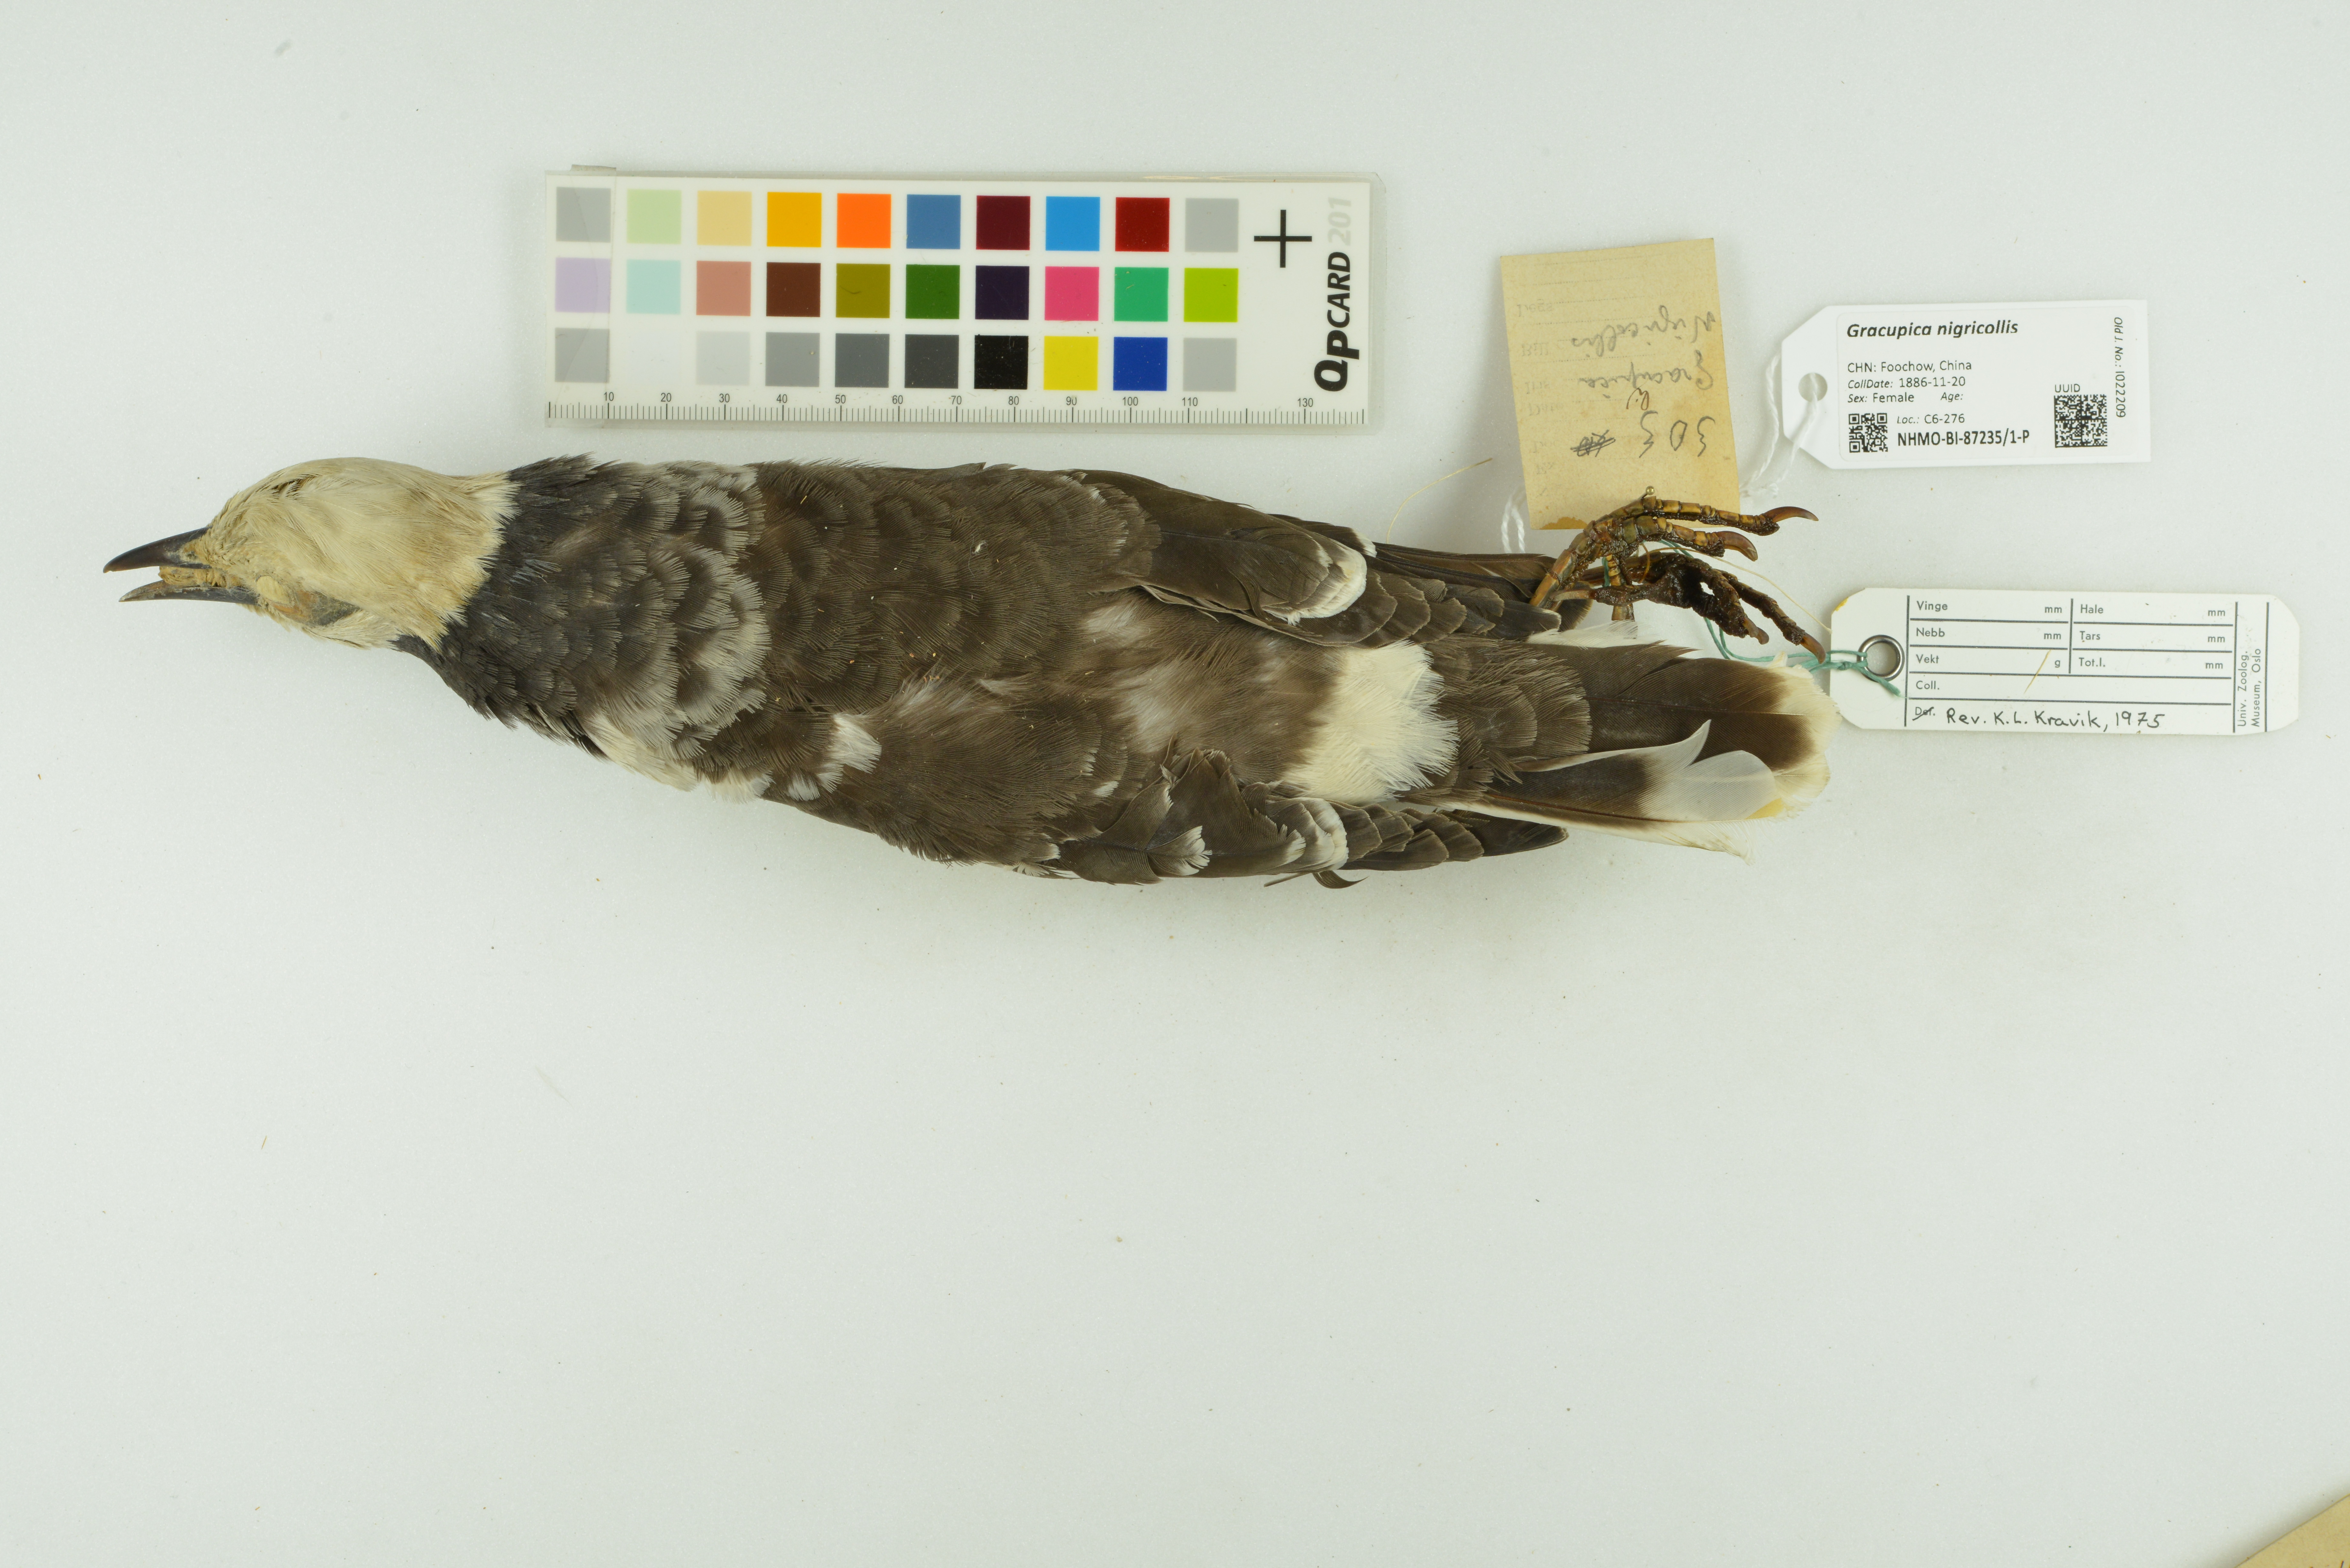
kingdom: Animalia
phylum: Chordata
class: Aves
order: Passeriformes
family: Sturnidae
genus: Gracupica
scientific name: Gracupica nigricollis
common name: Black-collared starling
